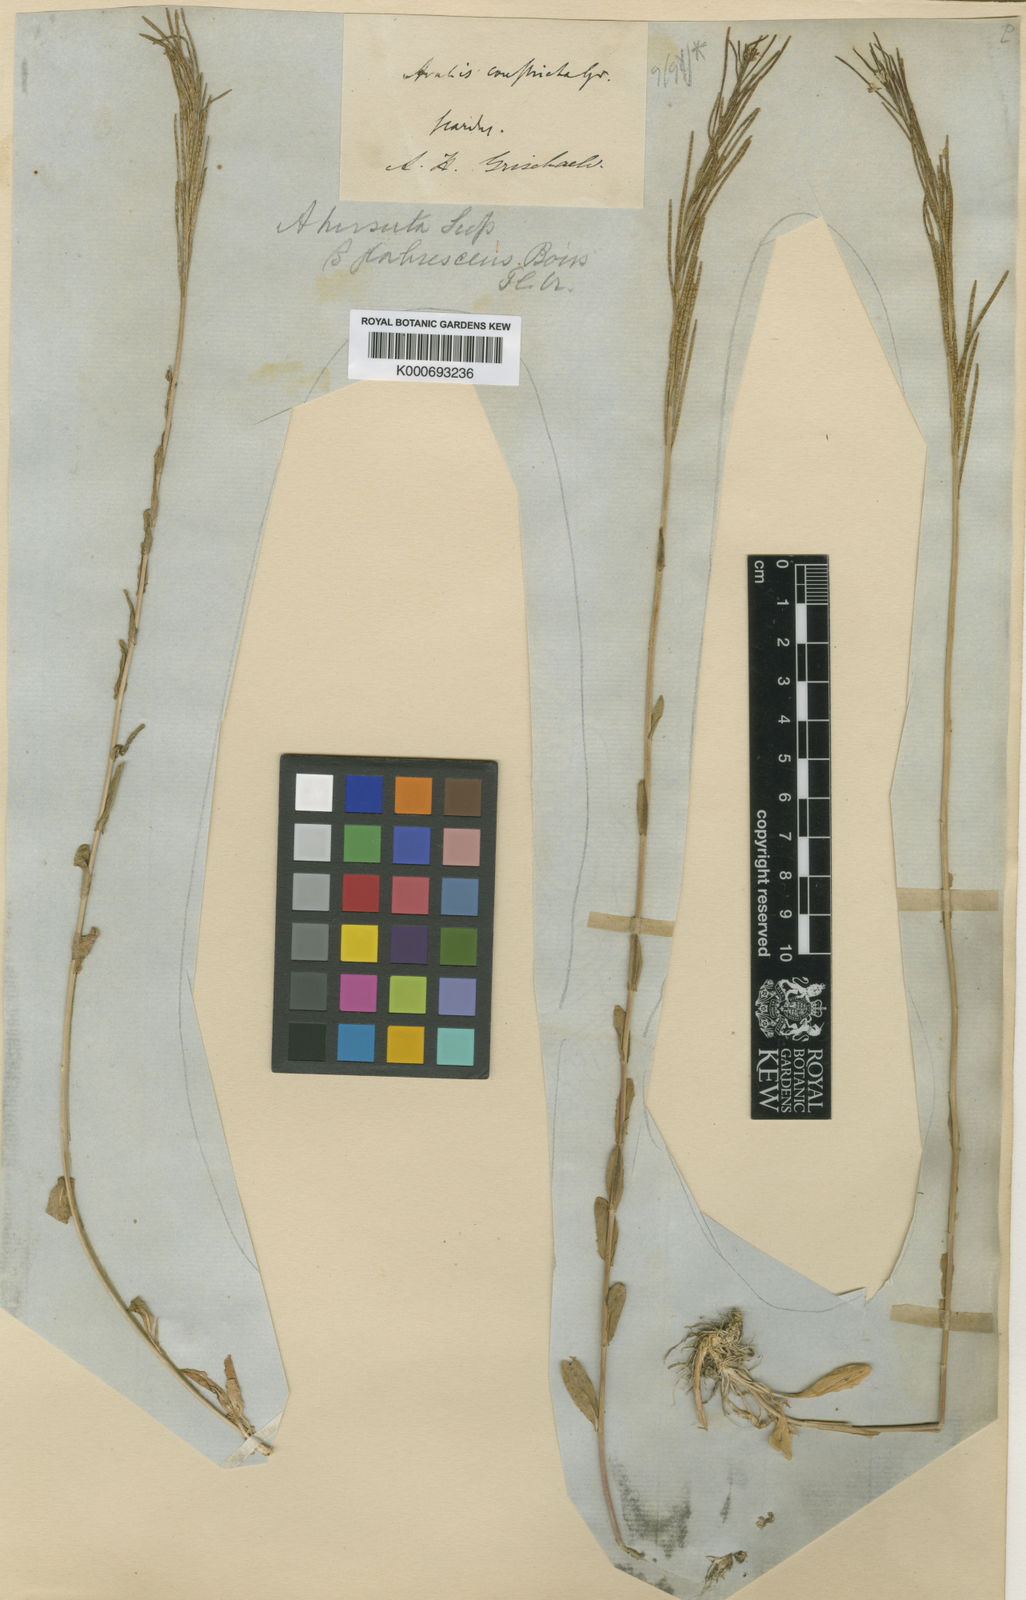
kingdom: Plantae
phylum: Tracheophyta
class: Magnoliopsida
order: Brassicales
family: Brassicaceae
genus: Arabis
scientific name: Arabis hirsuta
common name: Hairy rock-cress
